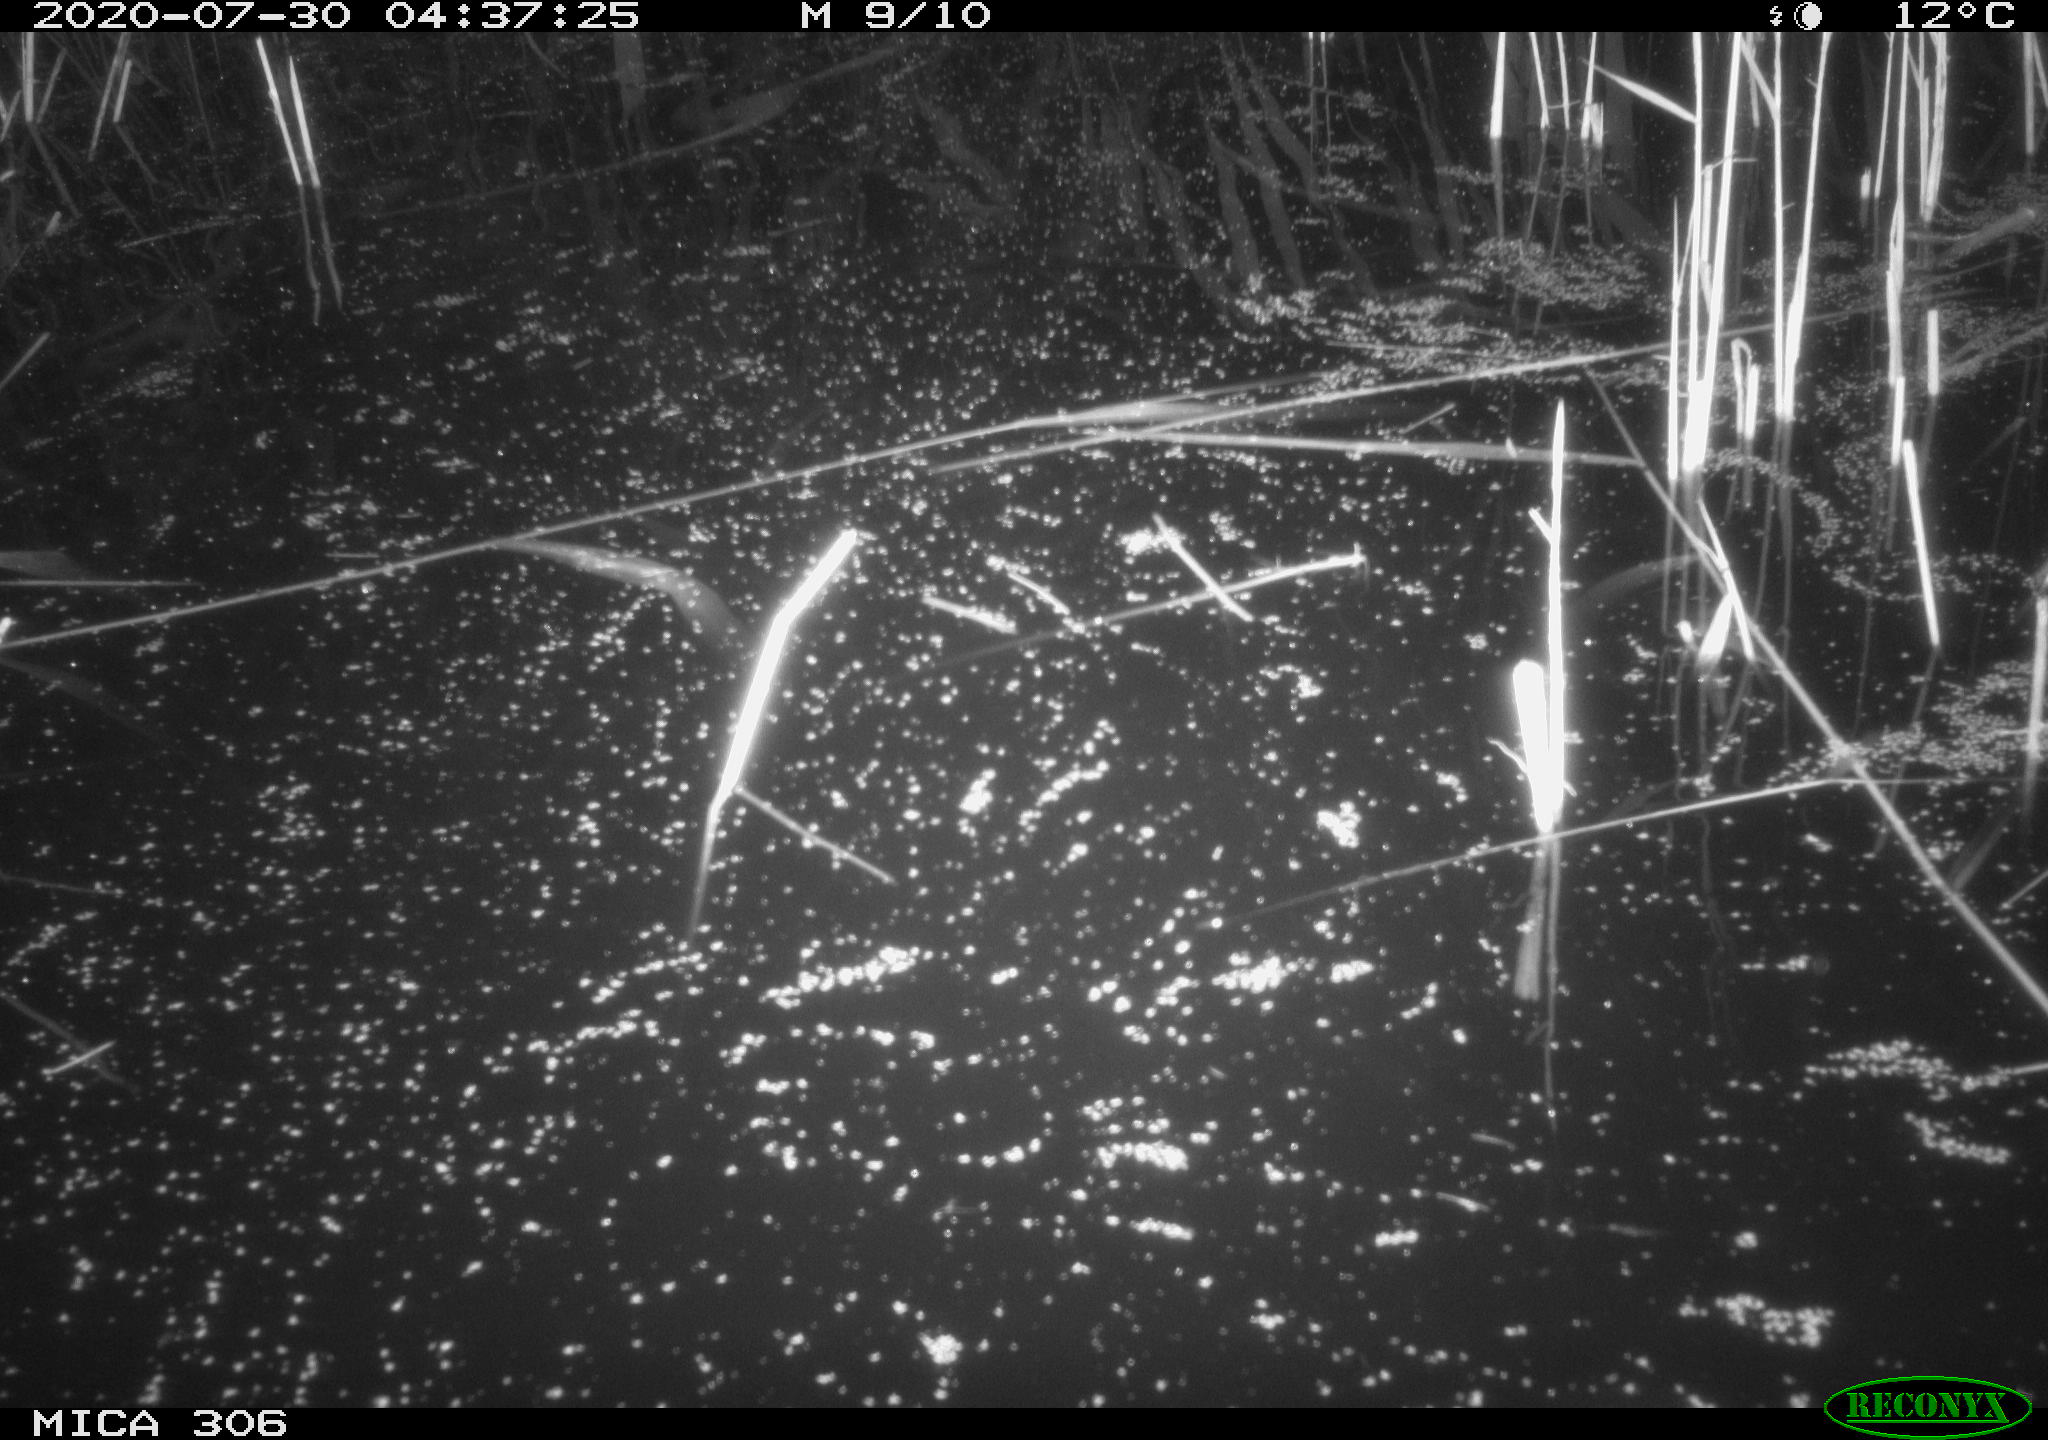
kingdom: Animalia
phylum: Chordata
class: Mammalia
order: Rodentia
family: Muridae
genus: Rattus
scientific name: Rattus norvegicus
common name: Brown rat
